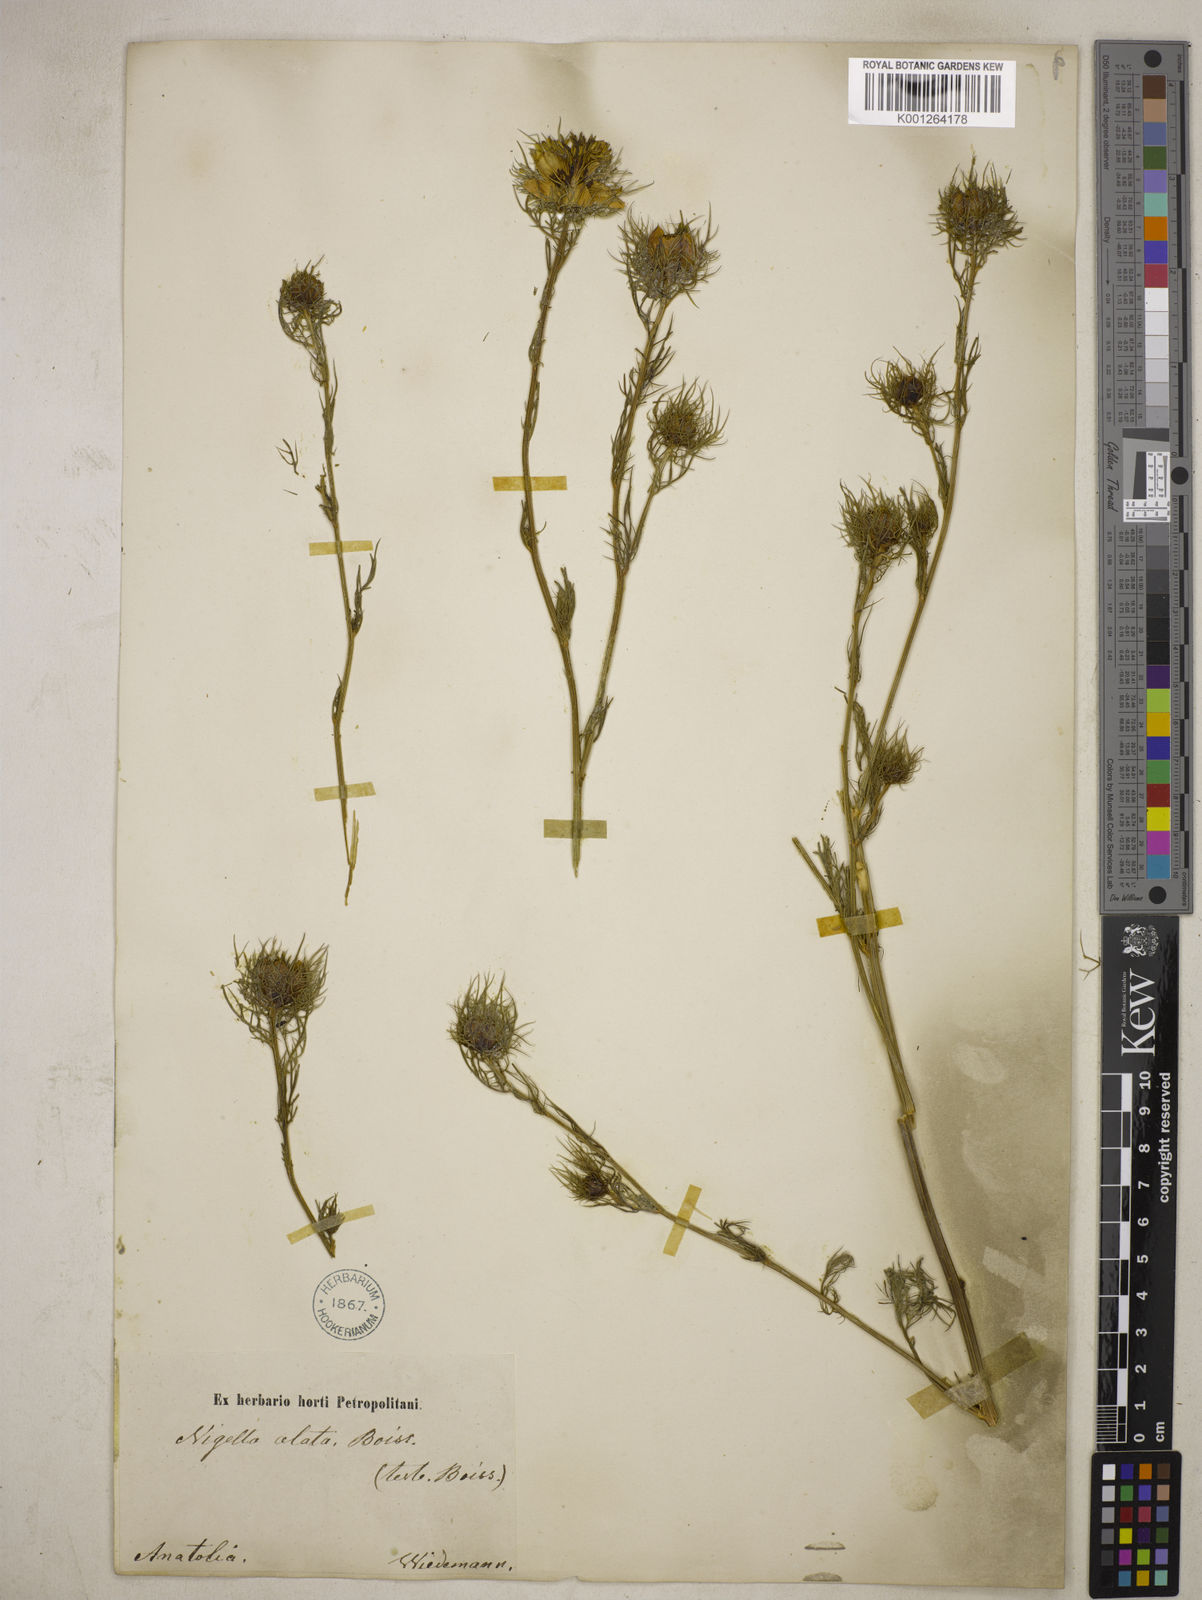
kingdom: Plantae
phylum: Tracheophyta
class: Magnoliopsida
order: Ranunculales
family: Ranunculaceae
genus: Nigella
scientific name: Nigella elata
